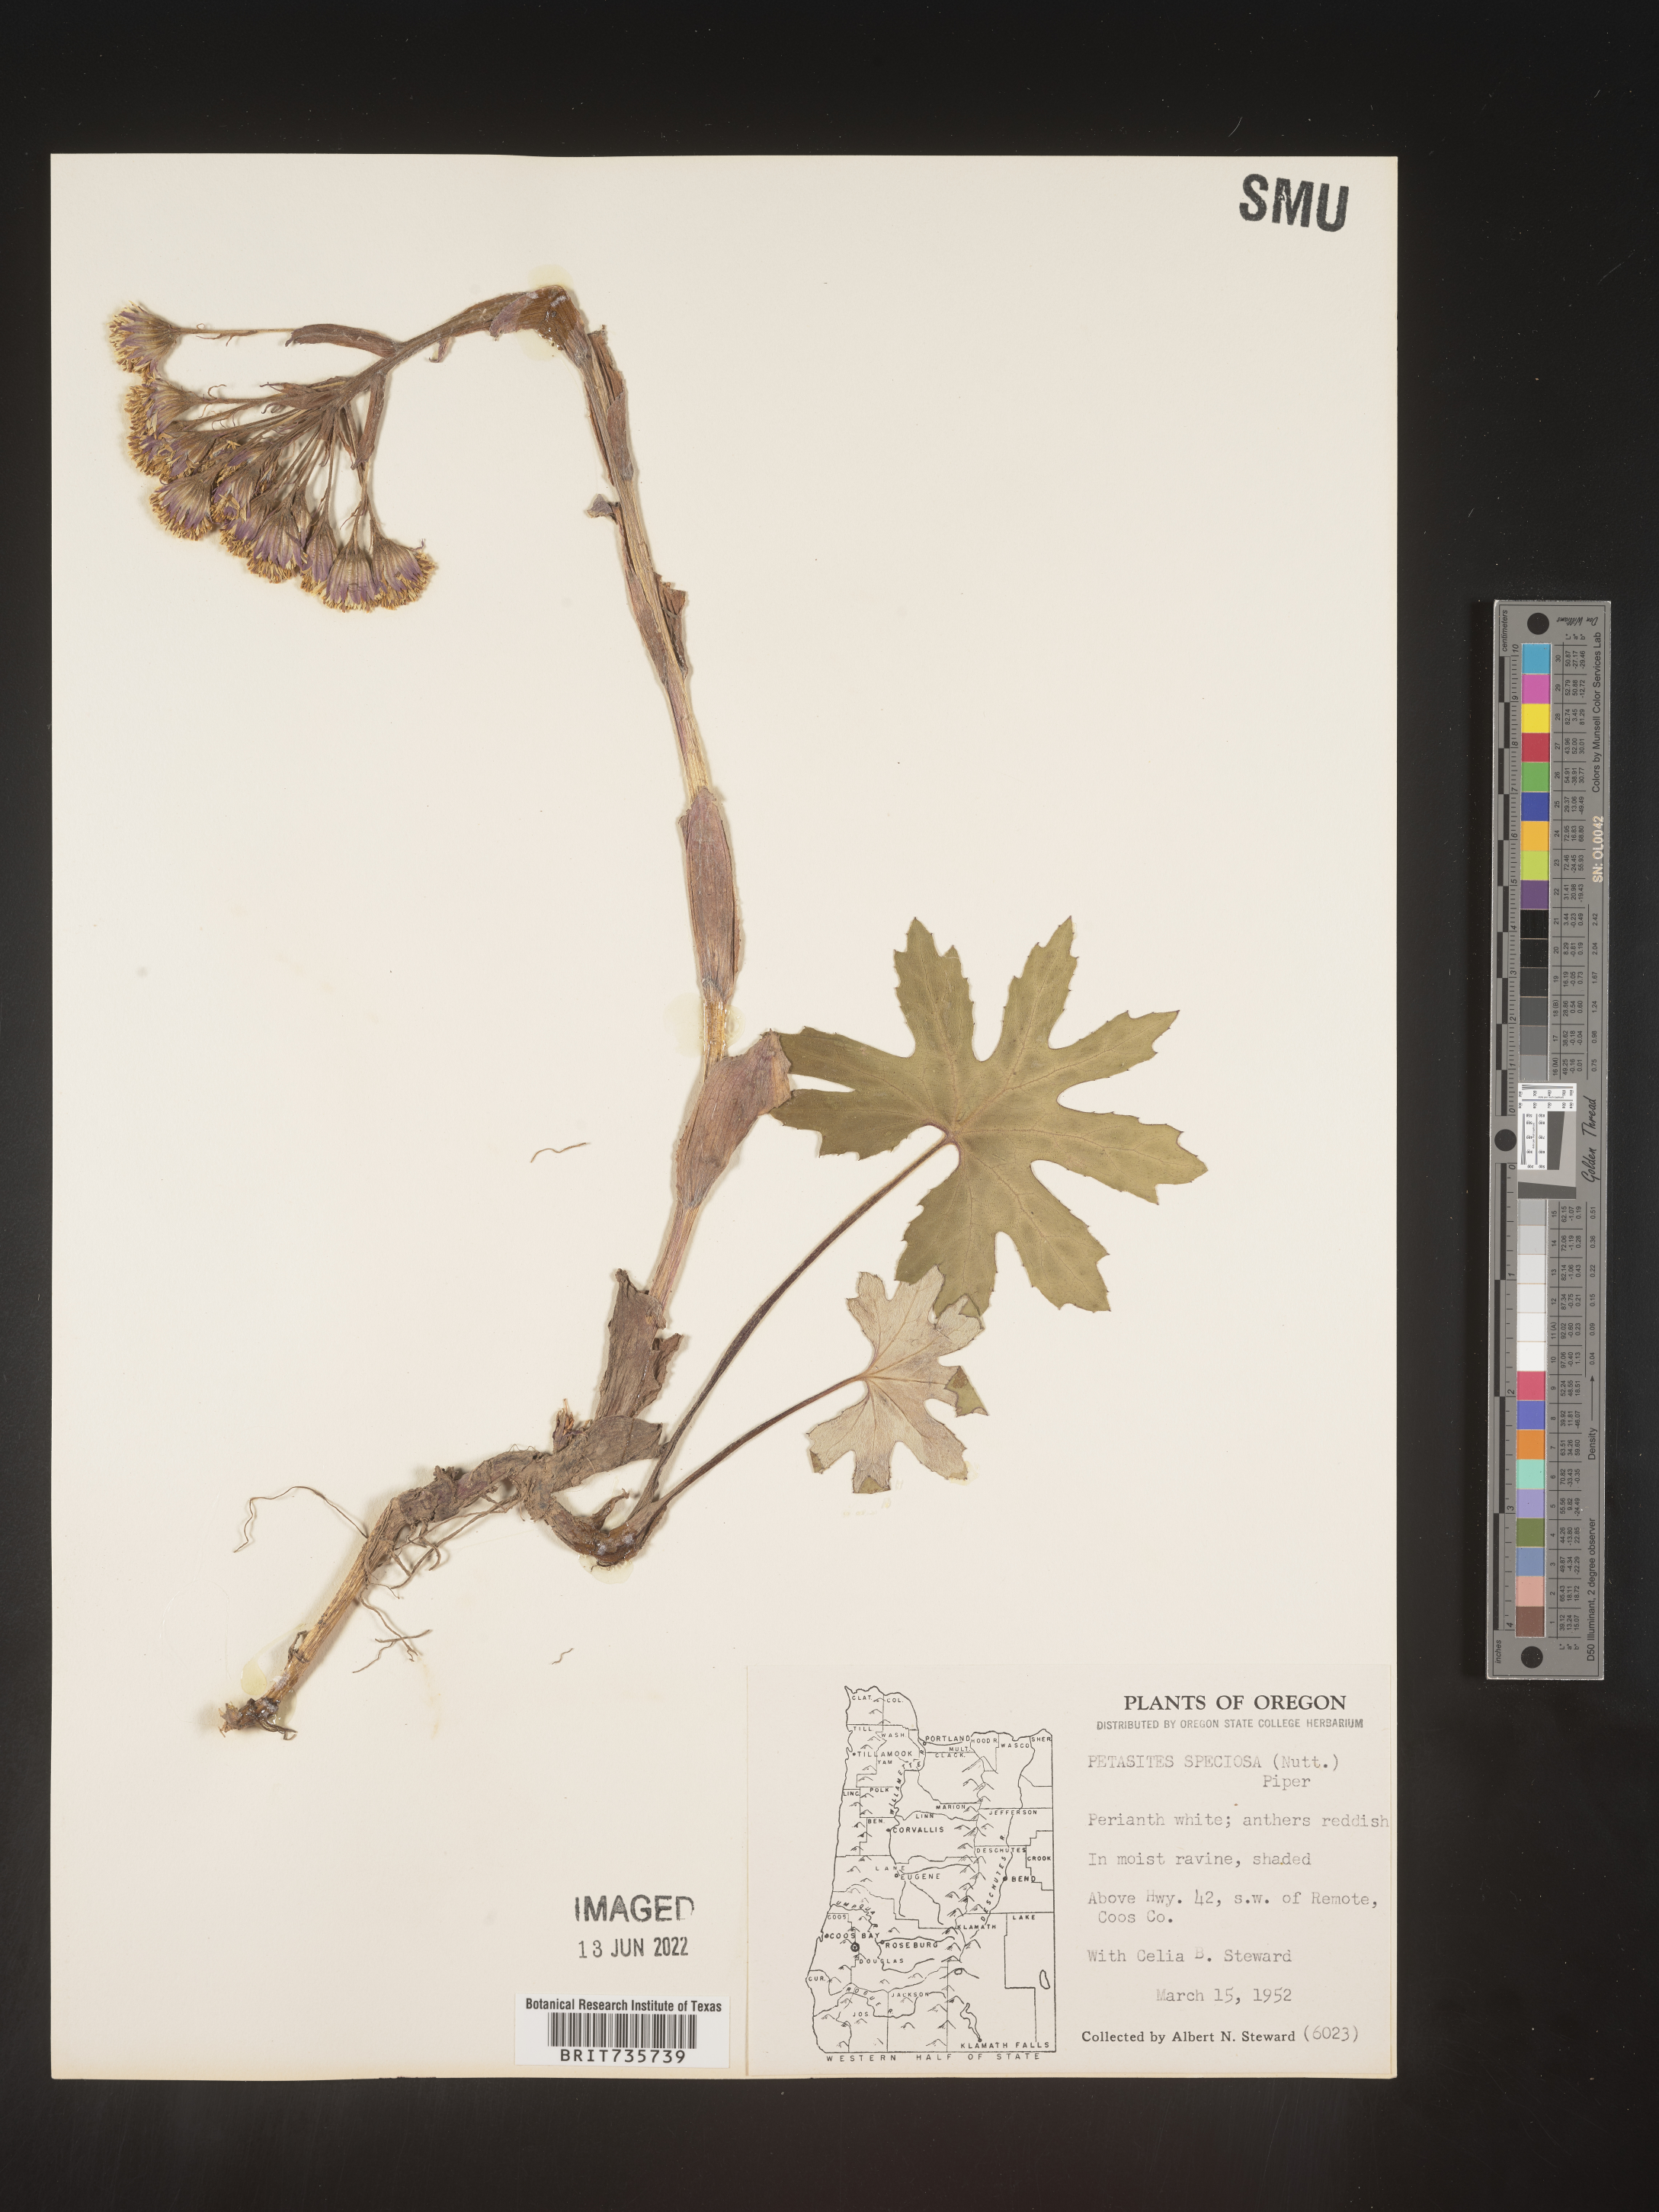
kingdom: Plantae
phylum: Tracheophyta
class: Magnoliopsida
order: Asterales
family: Asteraceae
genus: Petasites
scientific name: Petasites frigidus
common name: Arctic butterbur
